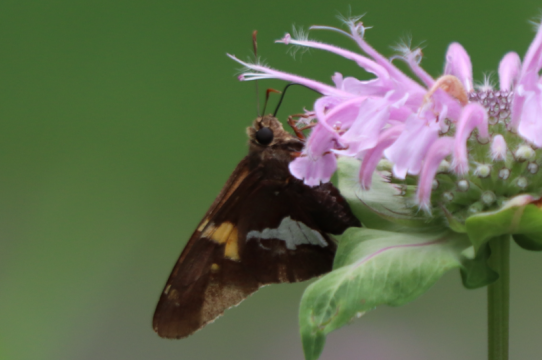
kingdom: Animalia
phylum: Arthropoda
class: Insecta
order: Lepidoptera
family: Hesperiidae
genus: Epargyreus
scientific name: Epargyreus clarus
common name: Silver-spotted Skipper
